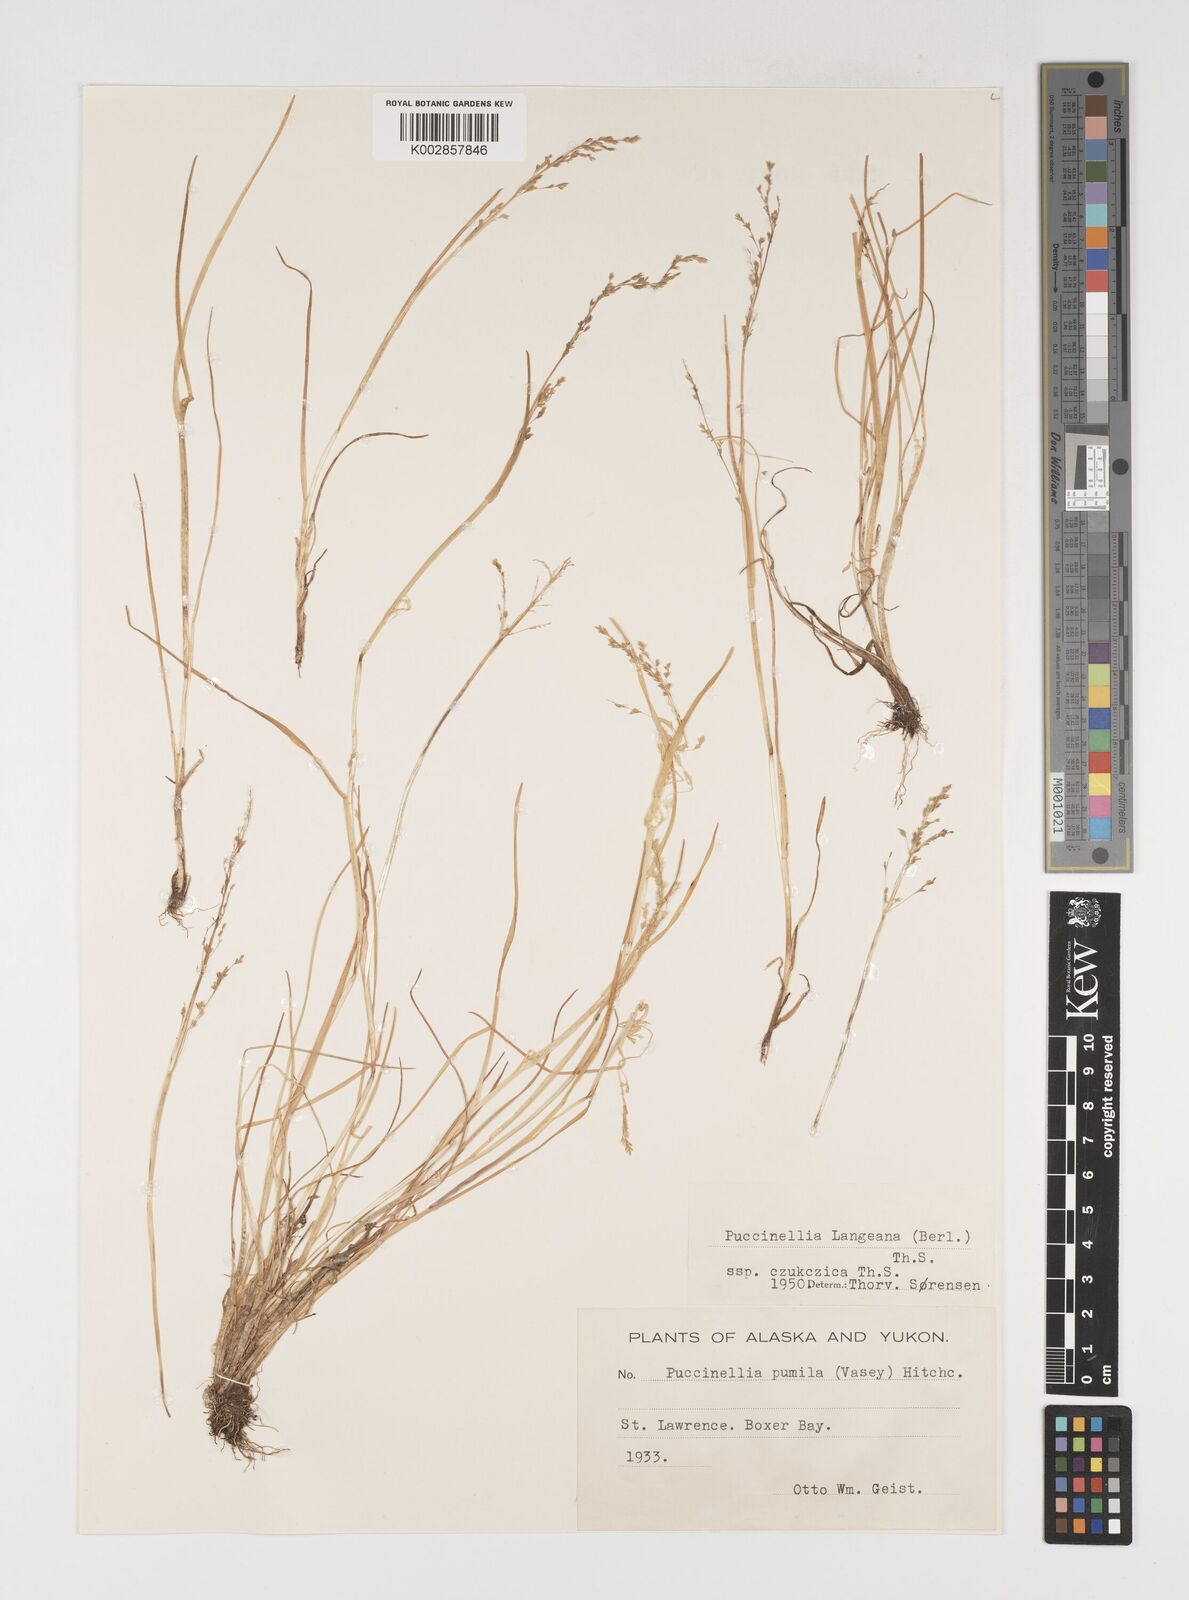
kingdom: Plantae
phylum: Tracheophyta
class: Liliopsida
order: Poales
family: Poaceae
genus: Puccinellia
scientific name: Puccinellia tenella
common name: Tundra alkaligrass
